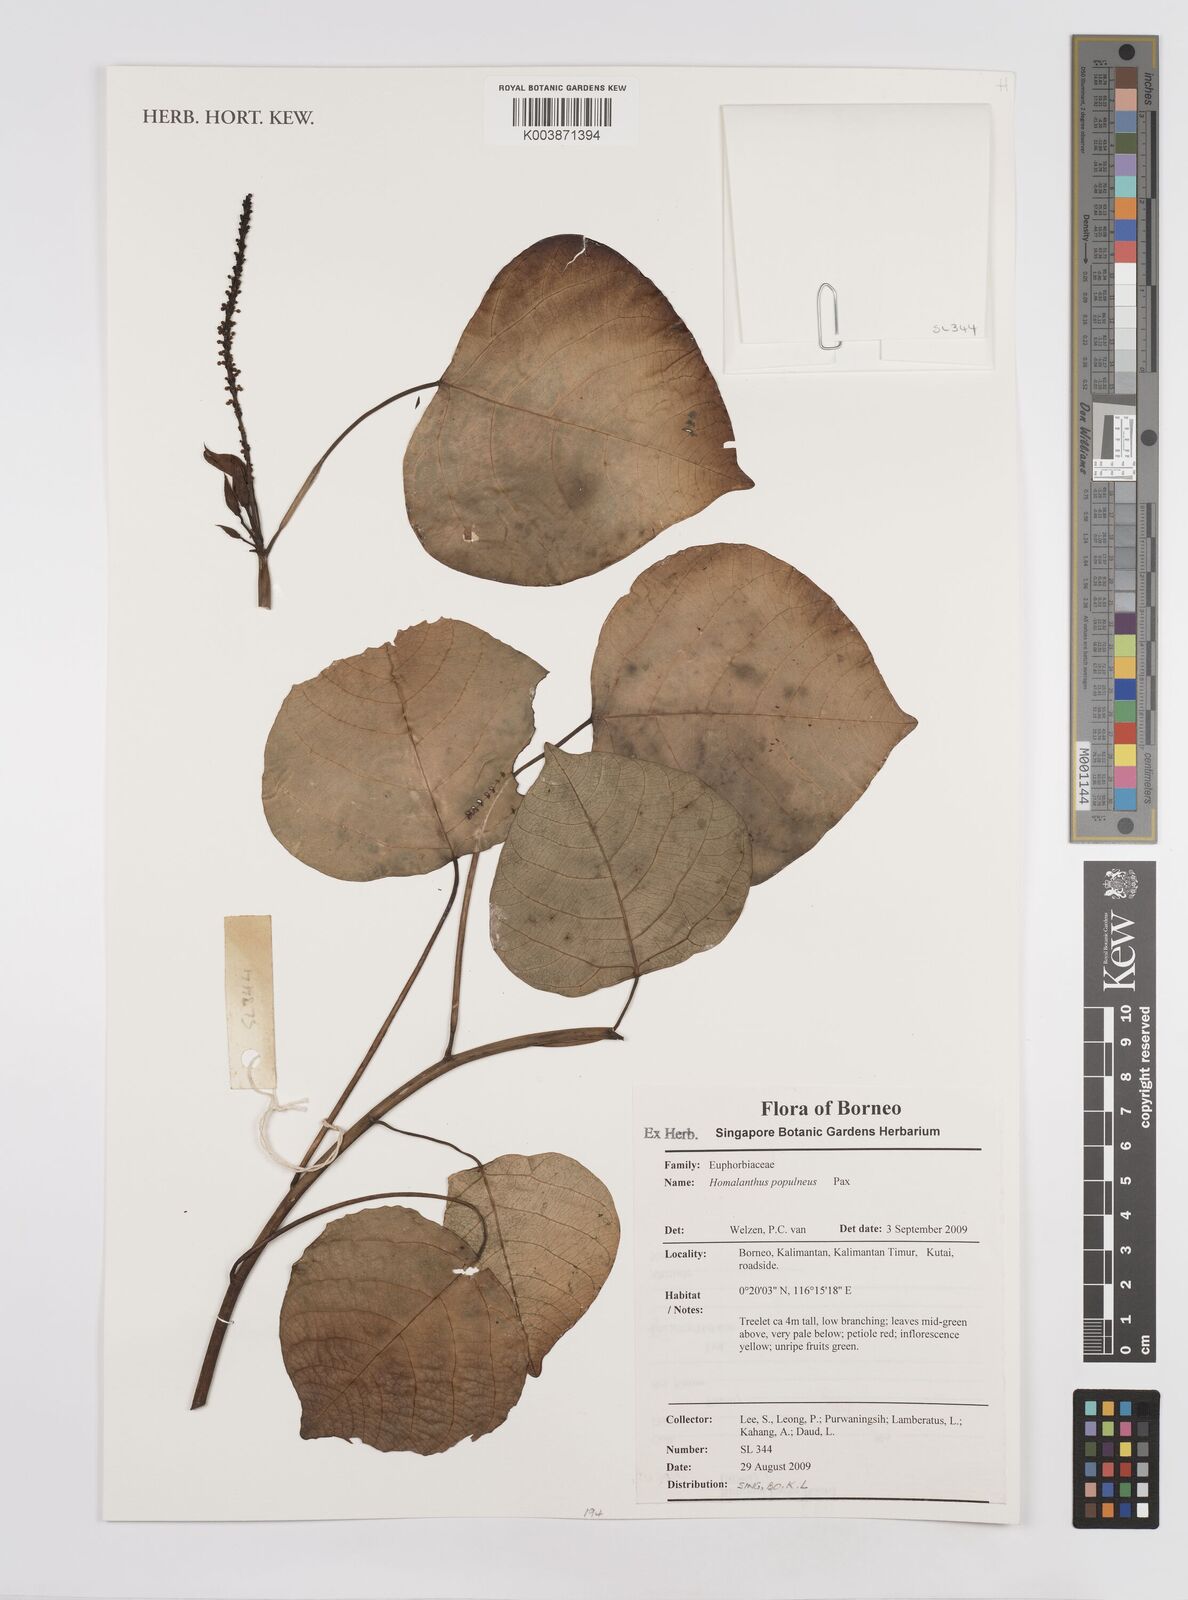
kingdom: Plantae
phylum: Tracheophyta
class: Magnoliopsida
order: Malpighiales
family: Euphorbiaceae
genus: Homalanthus
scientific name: Homalanthus populneus
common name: Spurge
